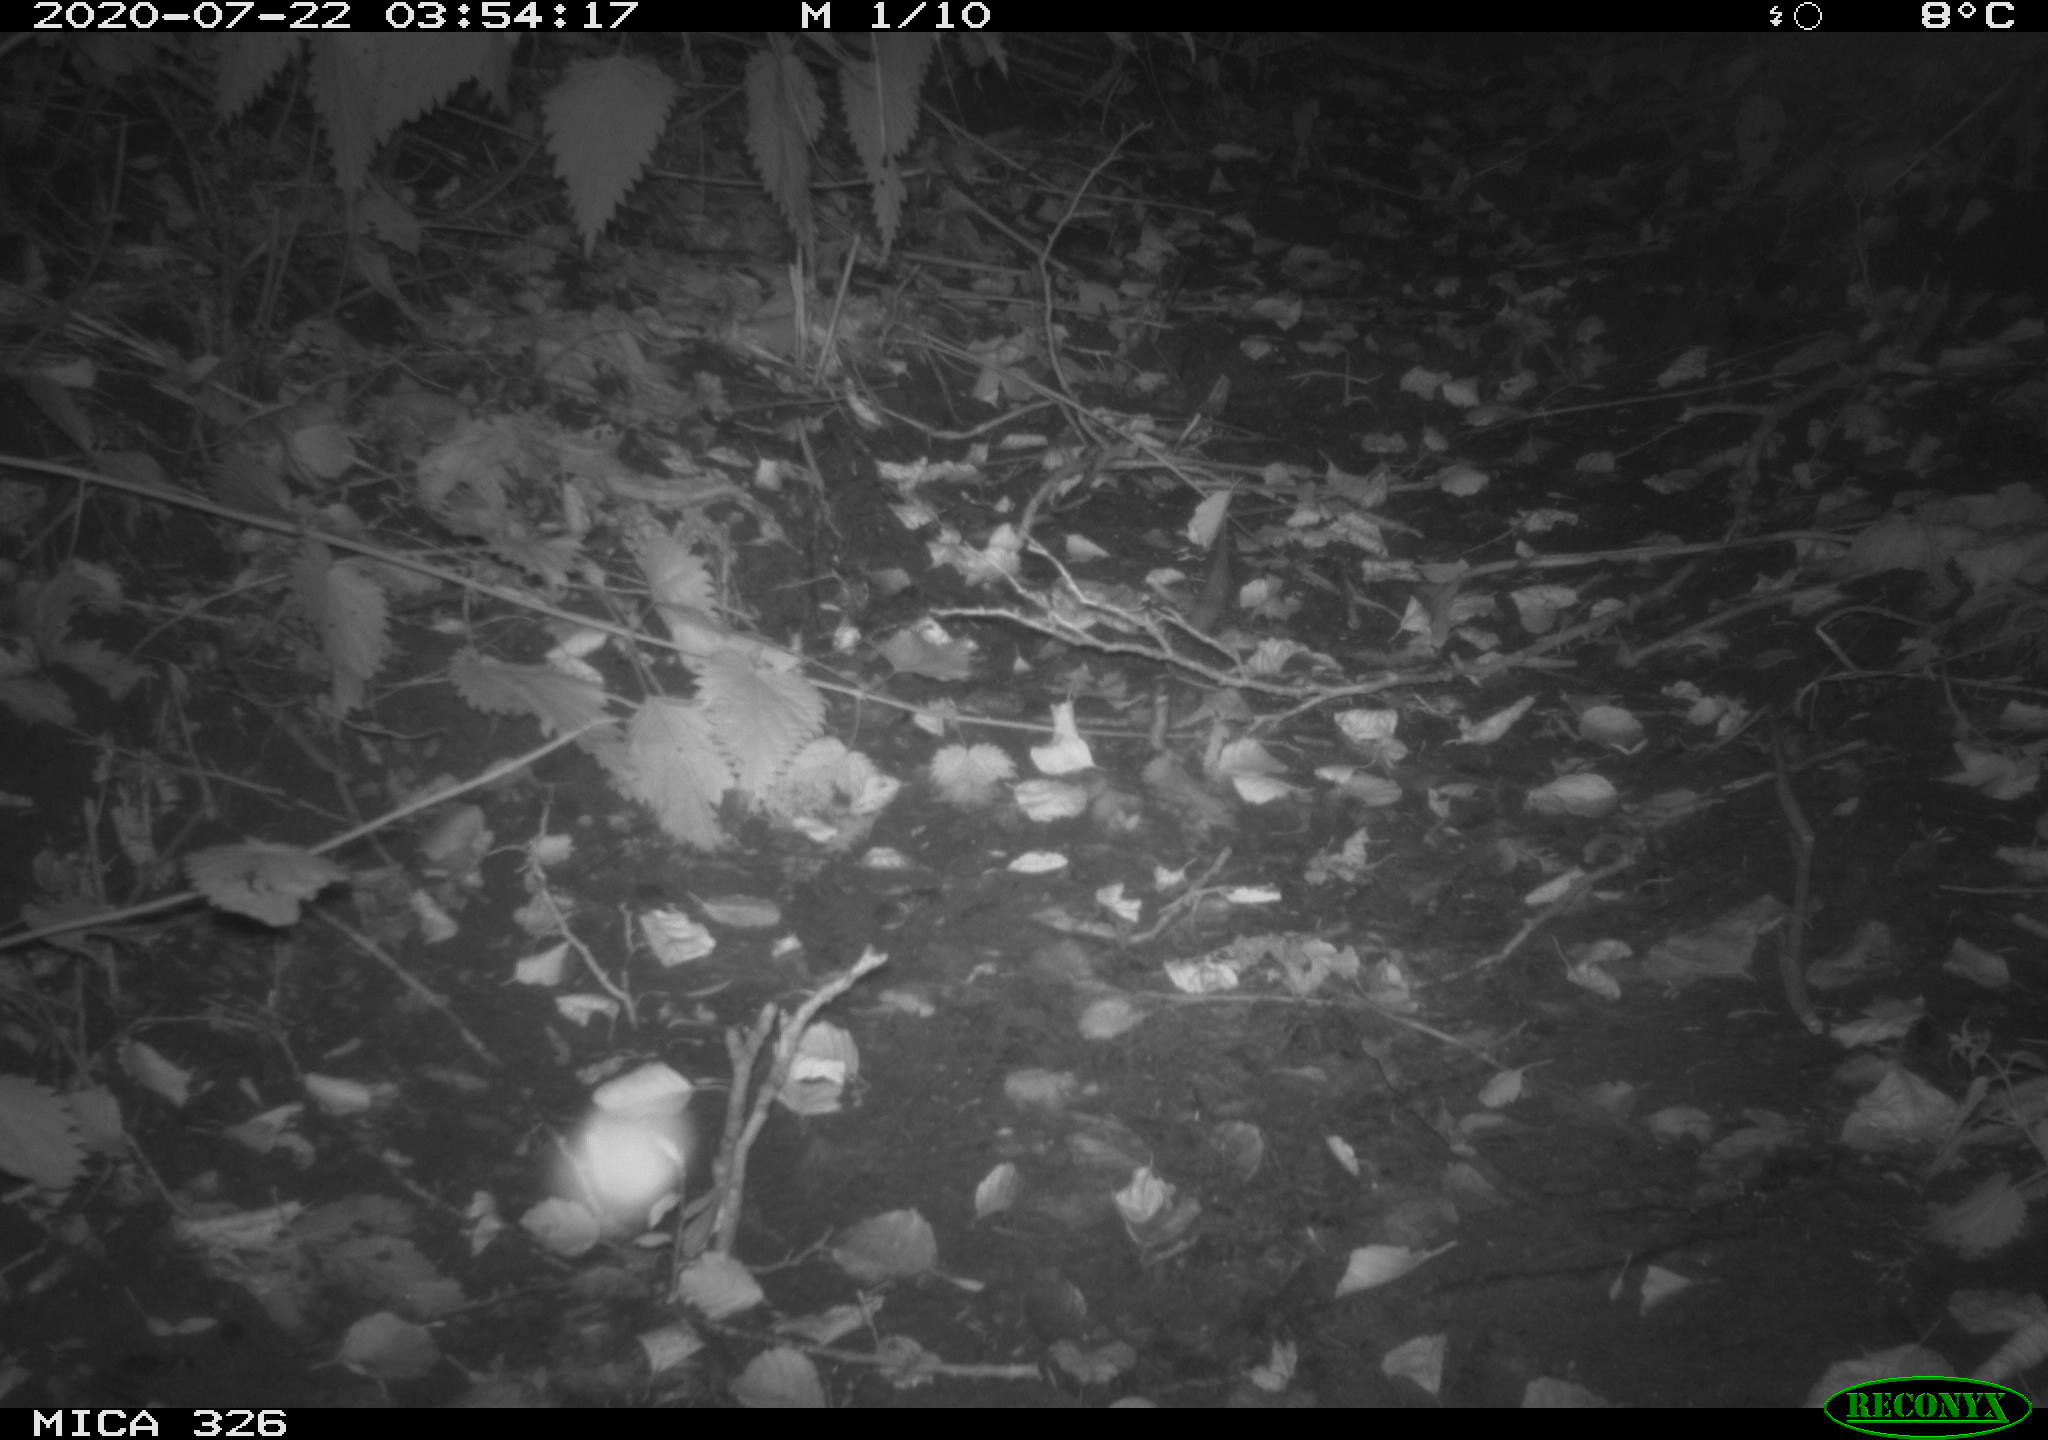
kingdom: Animalia
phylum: Chordata
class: Mammalia
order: Rodentia
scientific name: Rodentia
